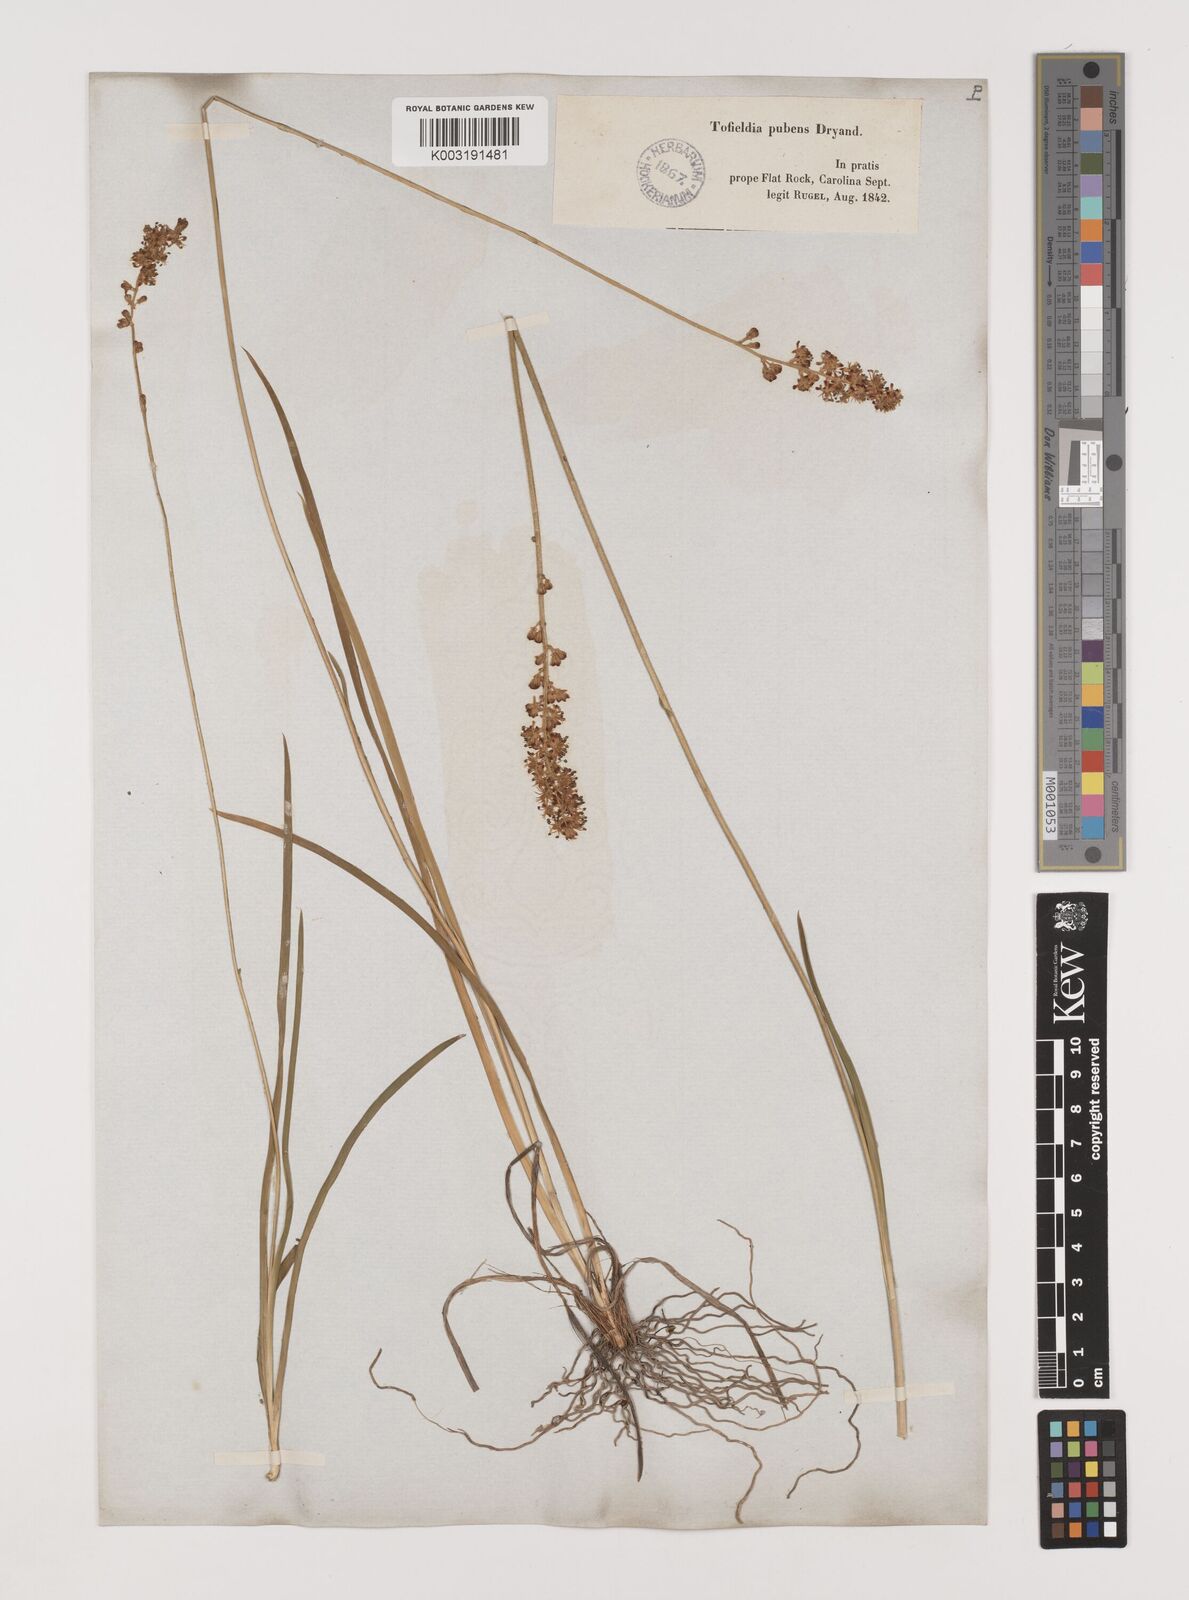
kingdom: Plantae
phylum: Tracheophyta
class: Liliopsida
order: Alismatales
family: Tofieldiaceae
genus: Triantha
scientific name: Triantha racemosa
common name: Coastal false asphodel
